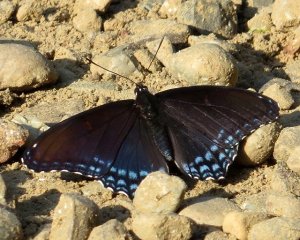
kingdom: Animalia
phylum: Arthropoda
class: Insecta
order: Lepidoptera
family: Nymphalidae
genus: Limenitis
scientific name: Limenitis astyanax
